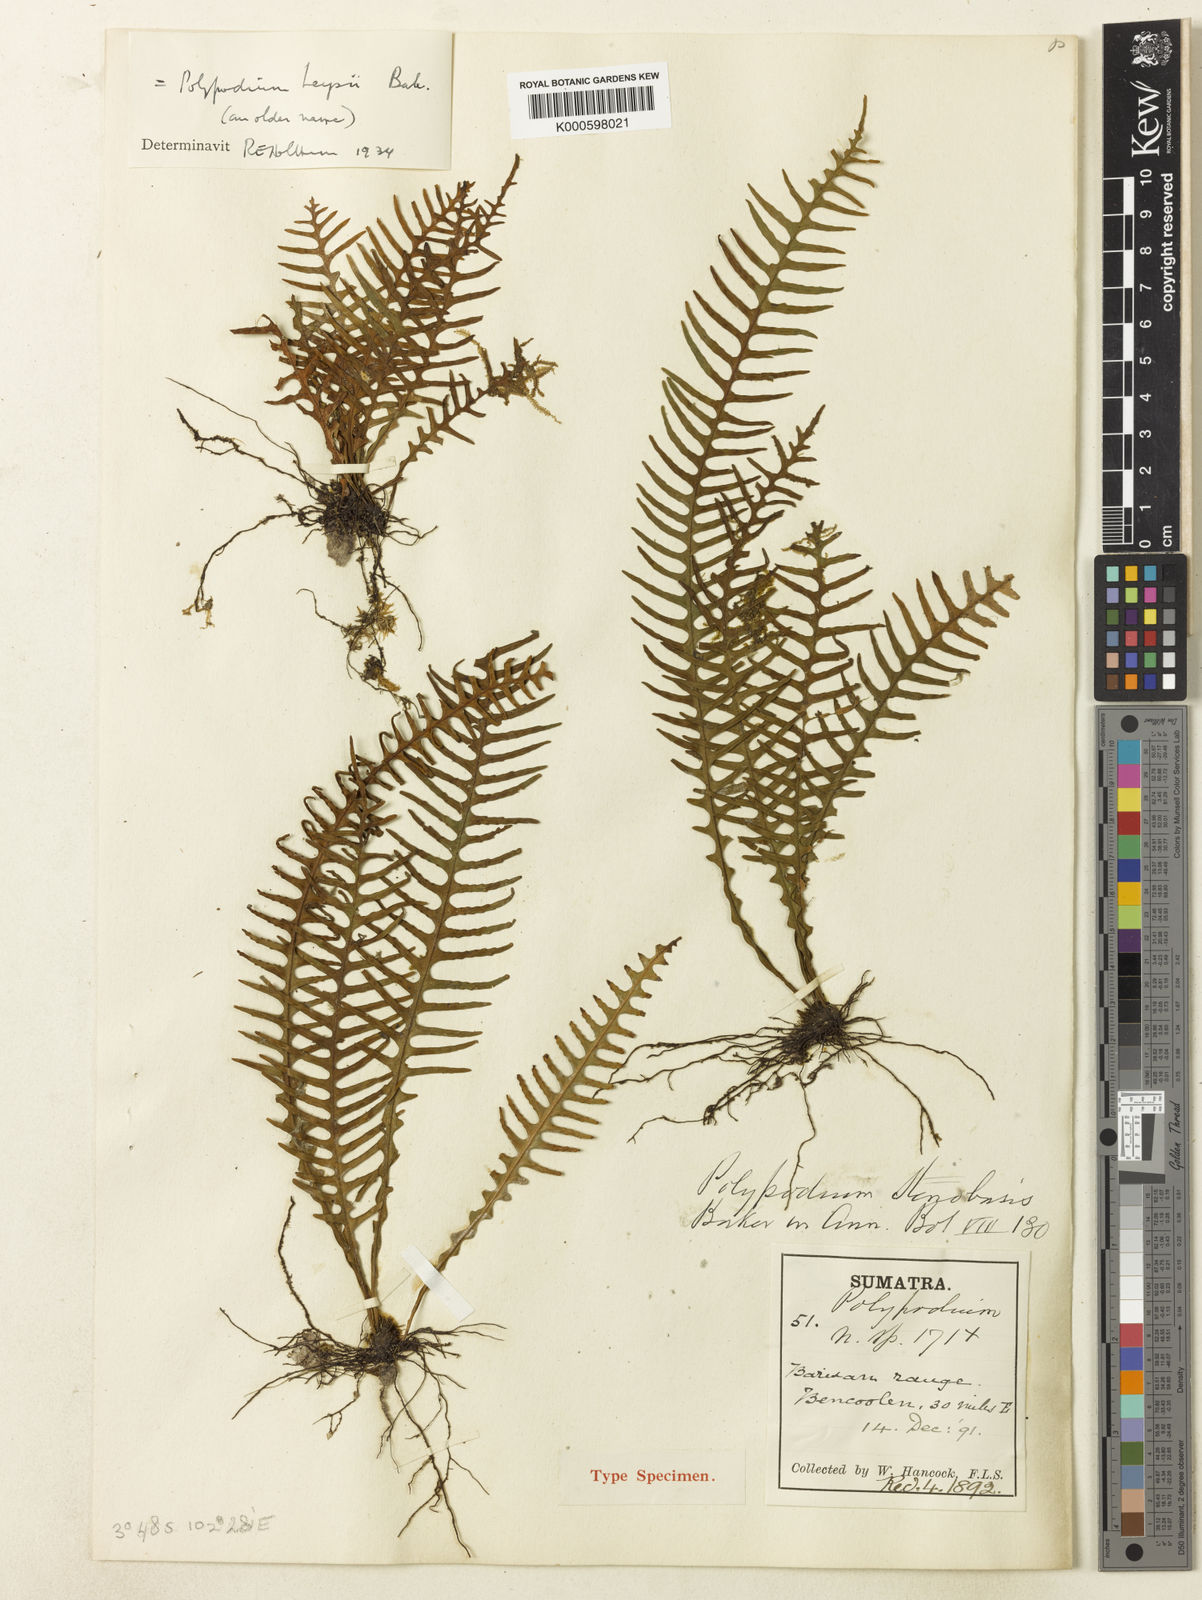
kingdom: Plantae
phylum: Tracheophyta
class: Polypodiopsida
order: Polypodiales
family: Polypodiaceae
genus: Prosaptia
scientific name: Prosaptia pectinata
